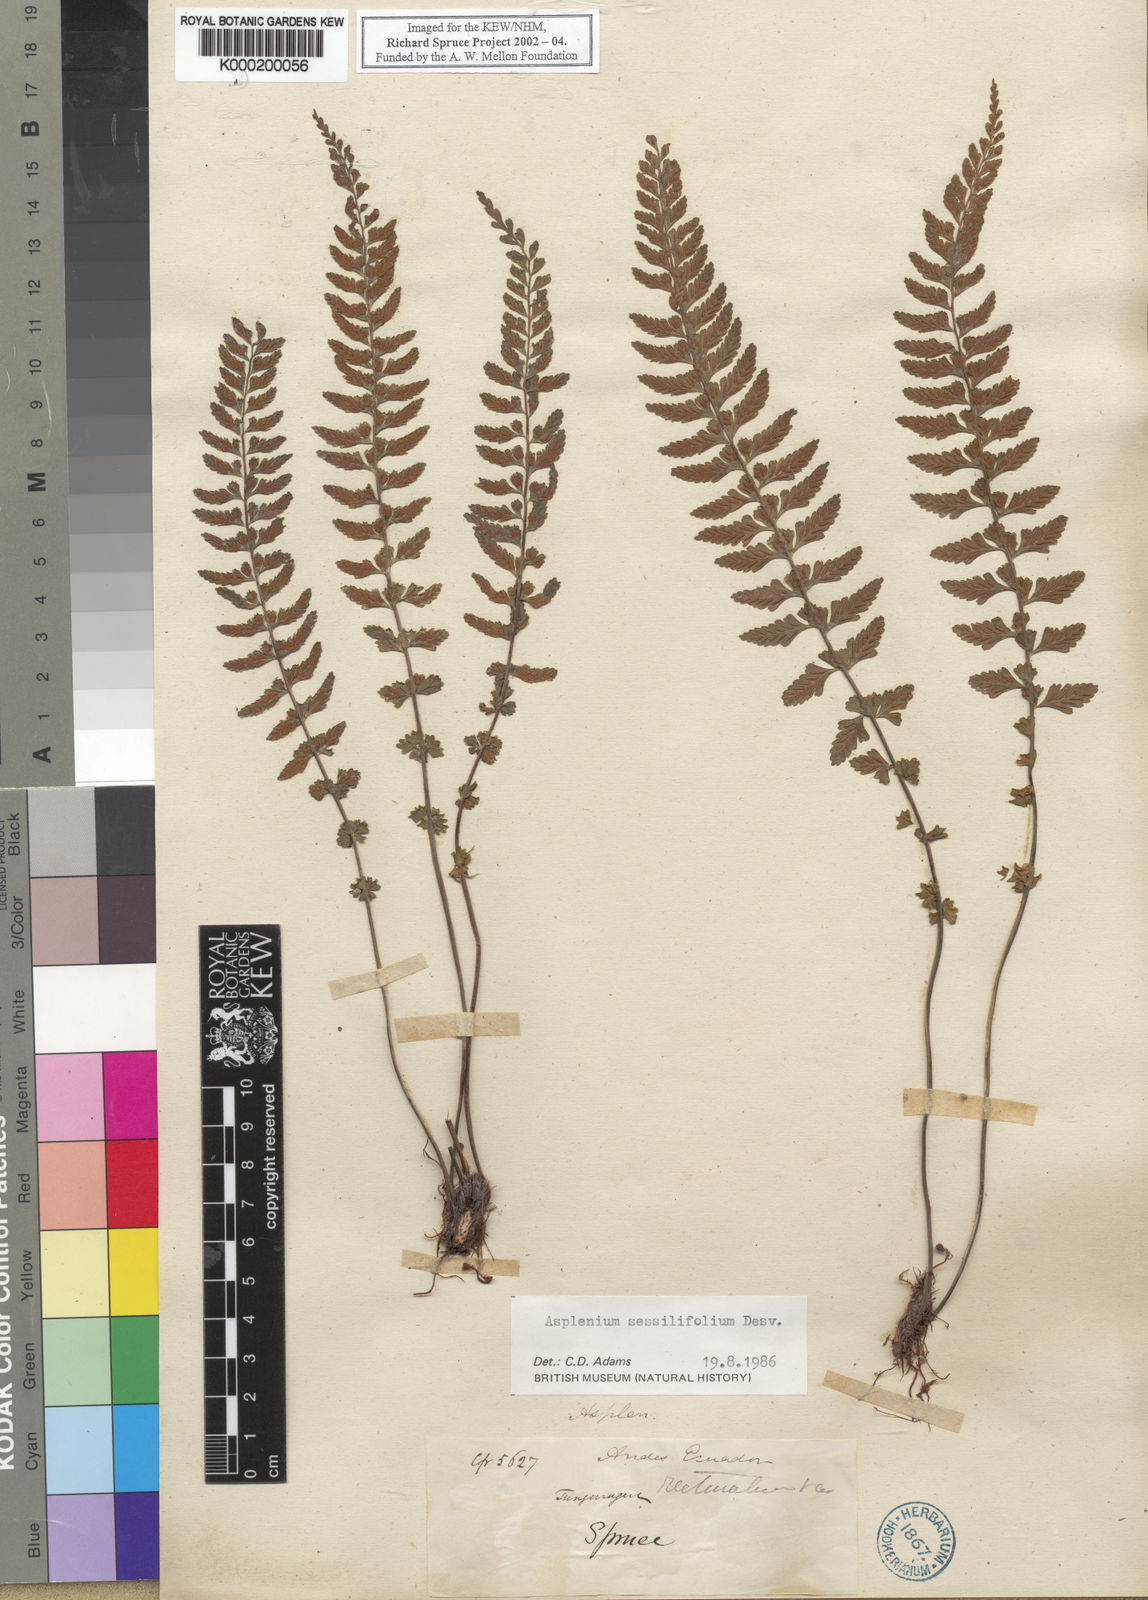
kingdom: Plantae
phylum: Tracheophyta
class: Polypodiopsida
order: Polypodiales
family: Aspleniaceae
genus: Asplenium
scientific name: Asplenium
